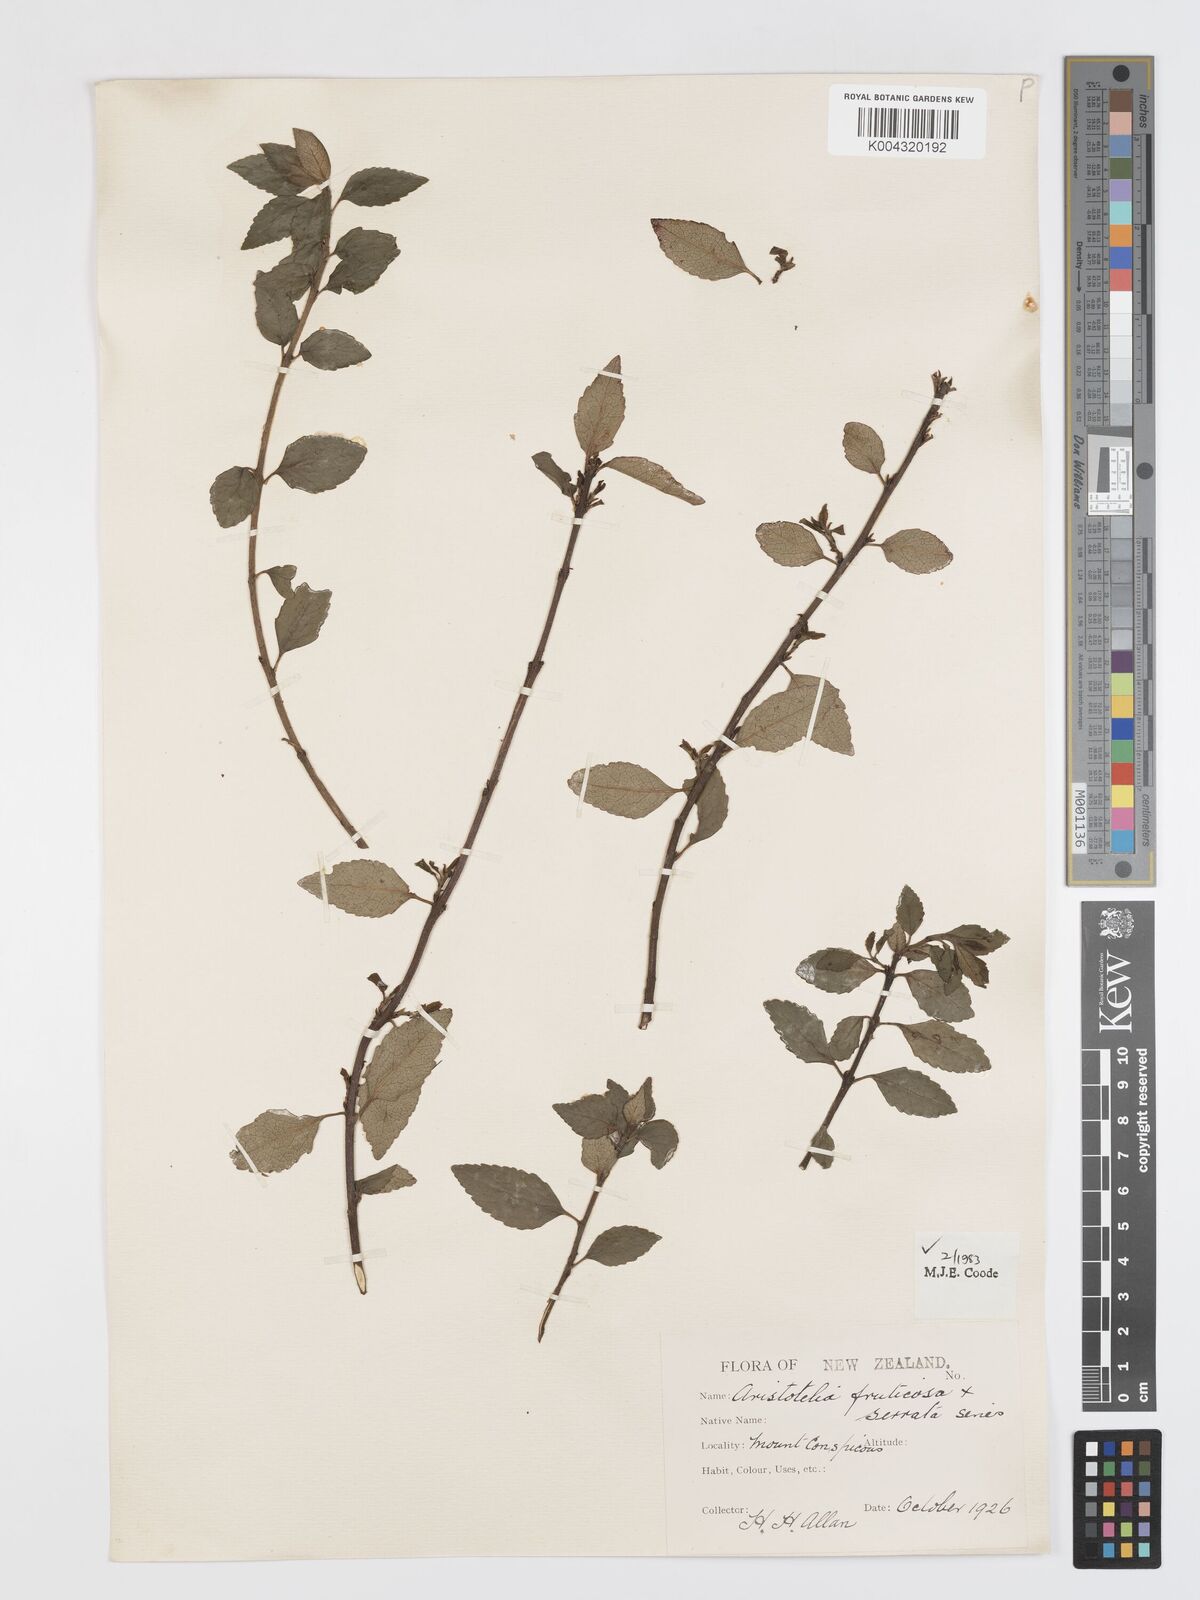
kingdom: Plantae
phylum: Tracheophyta
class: Magnoliopsida
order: Oxalidales
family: Elaeocarpaceae
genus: Aristotelia
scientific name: Aristotelia fruticosa
